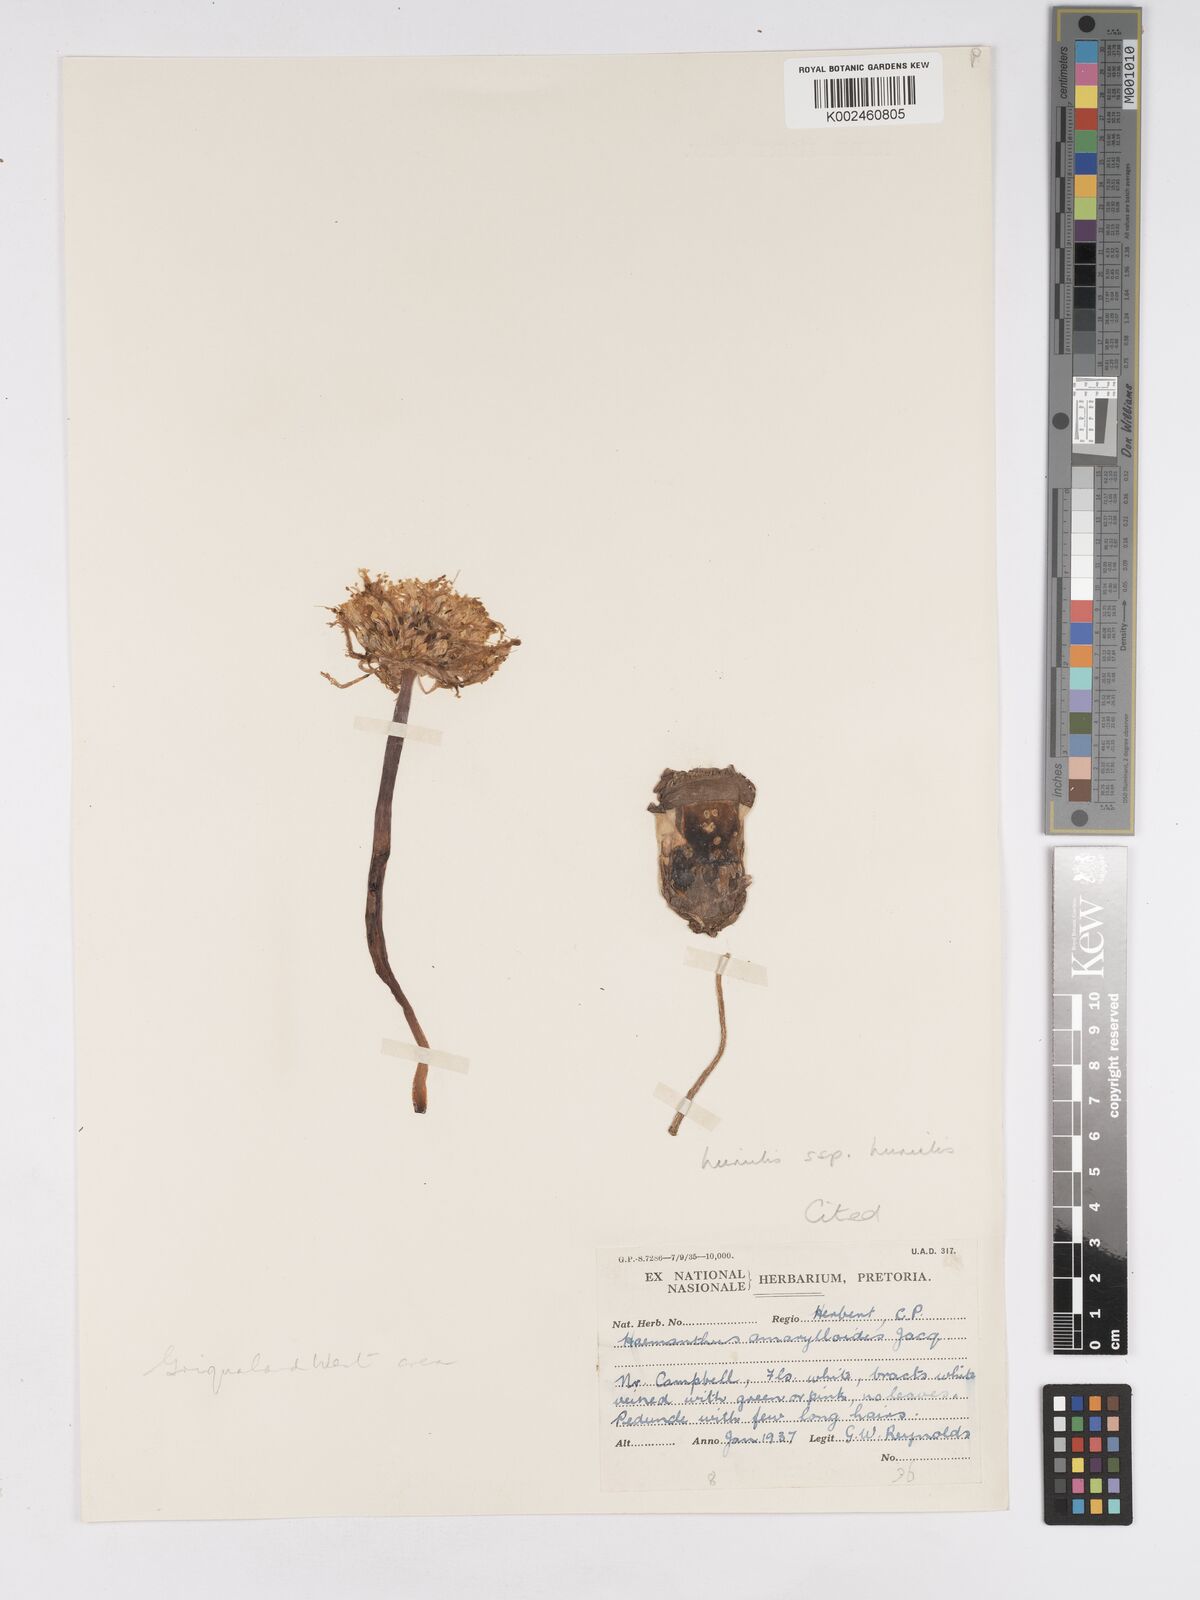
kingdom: Plantae
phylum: Tracheophyta
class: Liliopsida
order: Asparagales
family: Amaryllidaceae
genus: Haemanthus
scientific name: Haemanthus humilis
